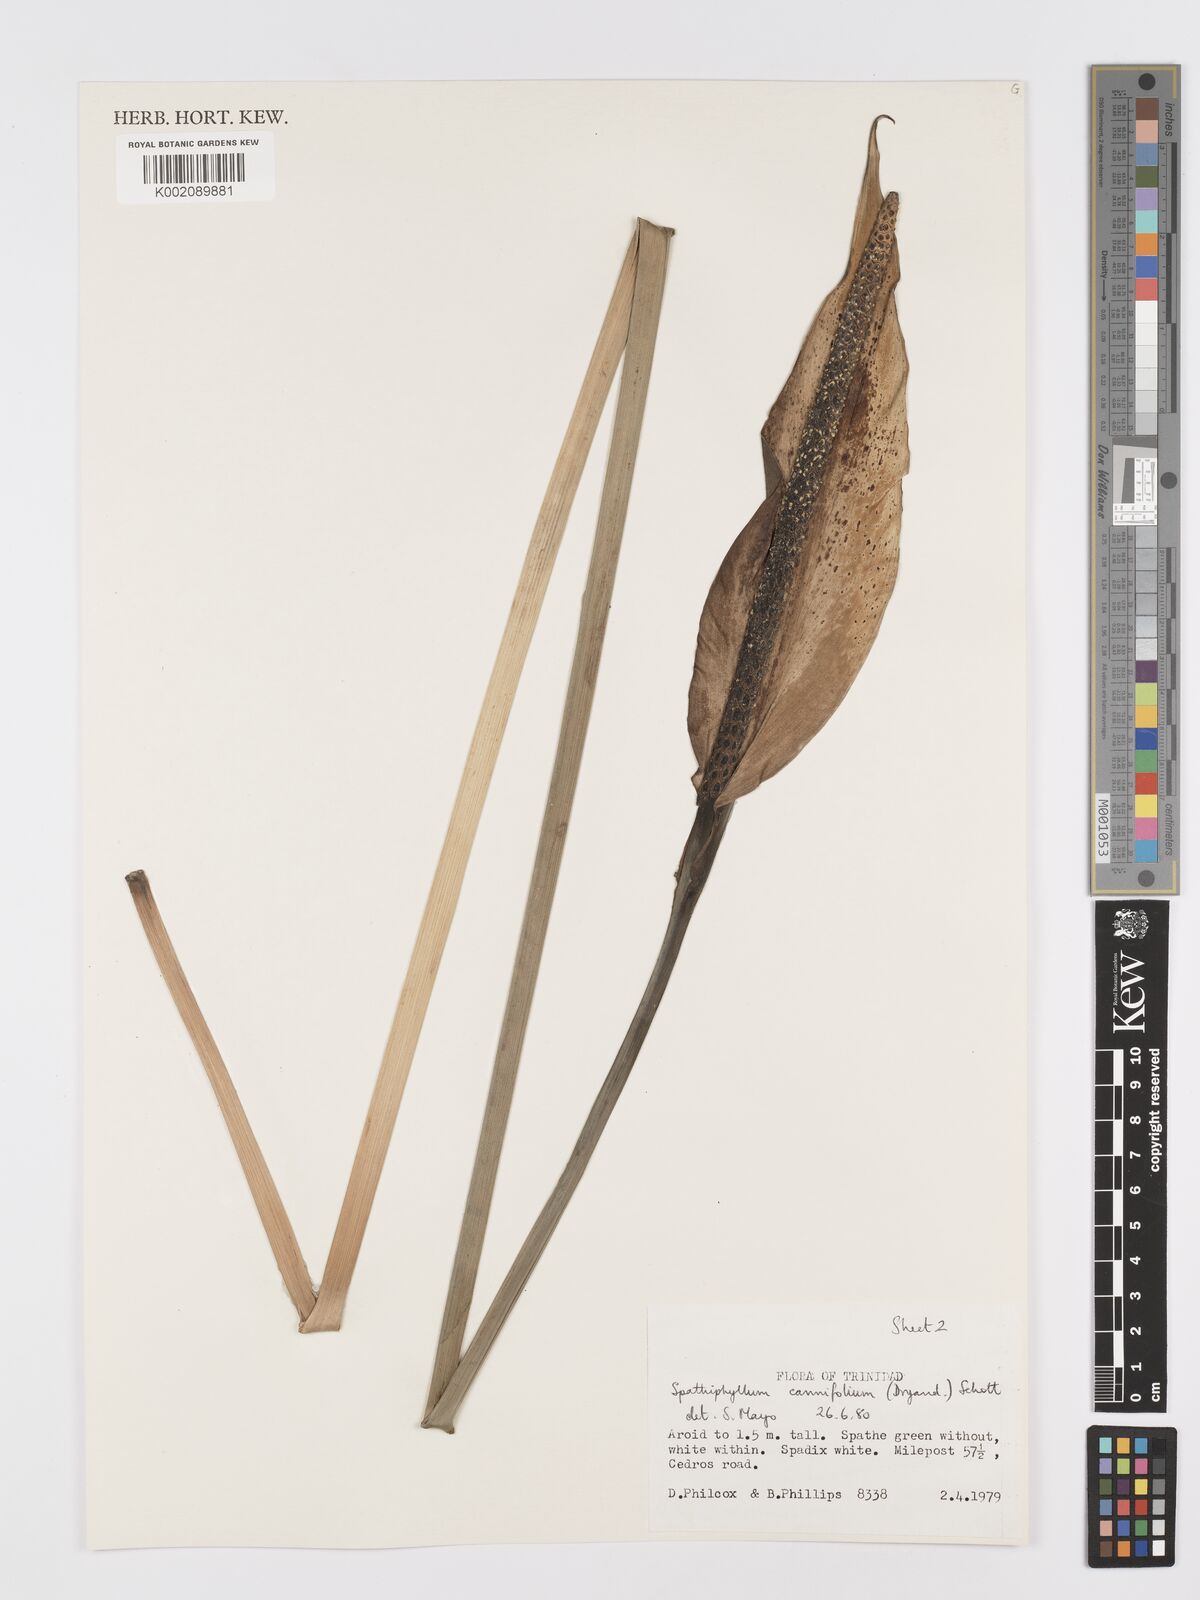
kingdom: Plantae
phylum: Tracheophyta
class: Liliopsida
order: Alismatales
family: Araceae
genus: Spathiphyllum
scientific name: Spathiphyllum cannifolium
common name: Spatheflower
